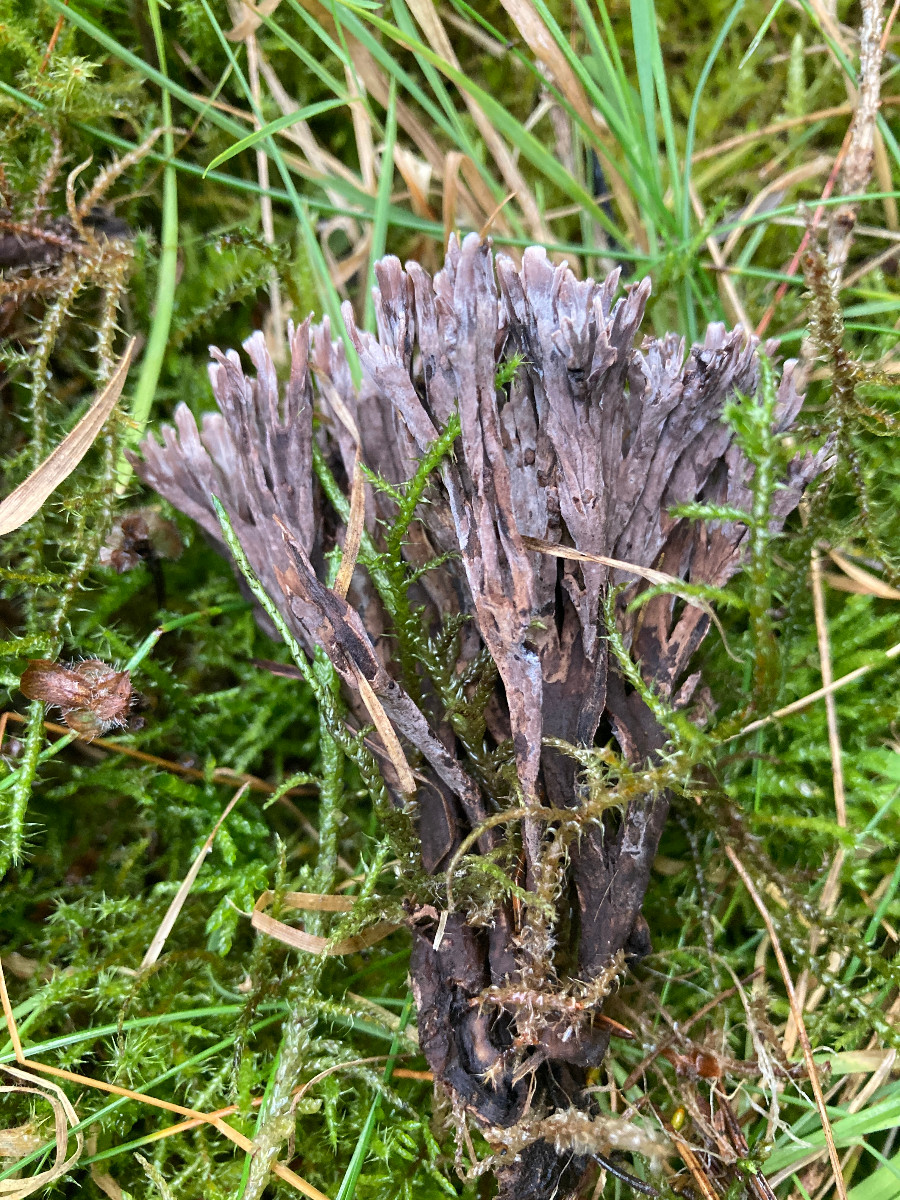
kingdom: Fungi
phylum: Basidiomycota
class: Agaricomycetes
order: Thelephorales
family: Thelephoraceae
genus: Thelephora
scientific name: Thelephora palmata
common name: grenet frynsesvamp
